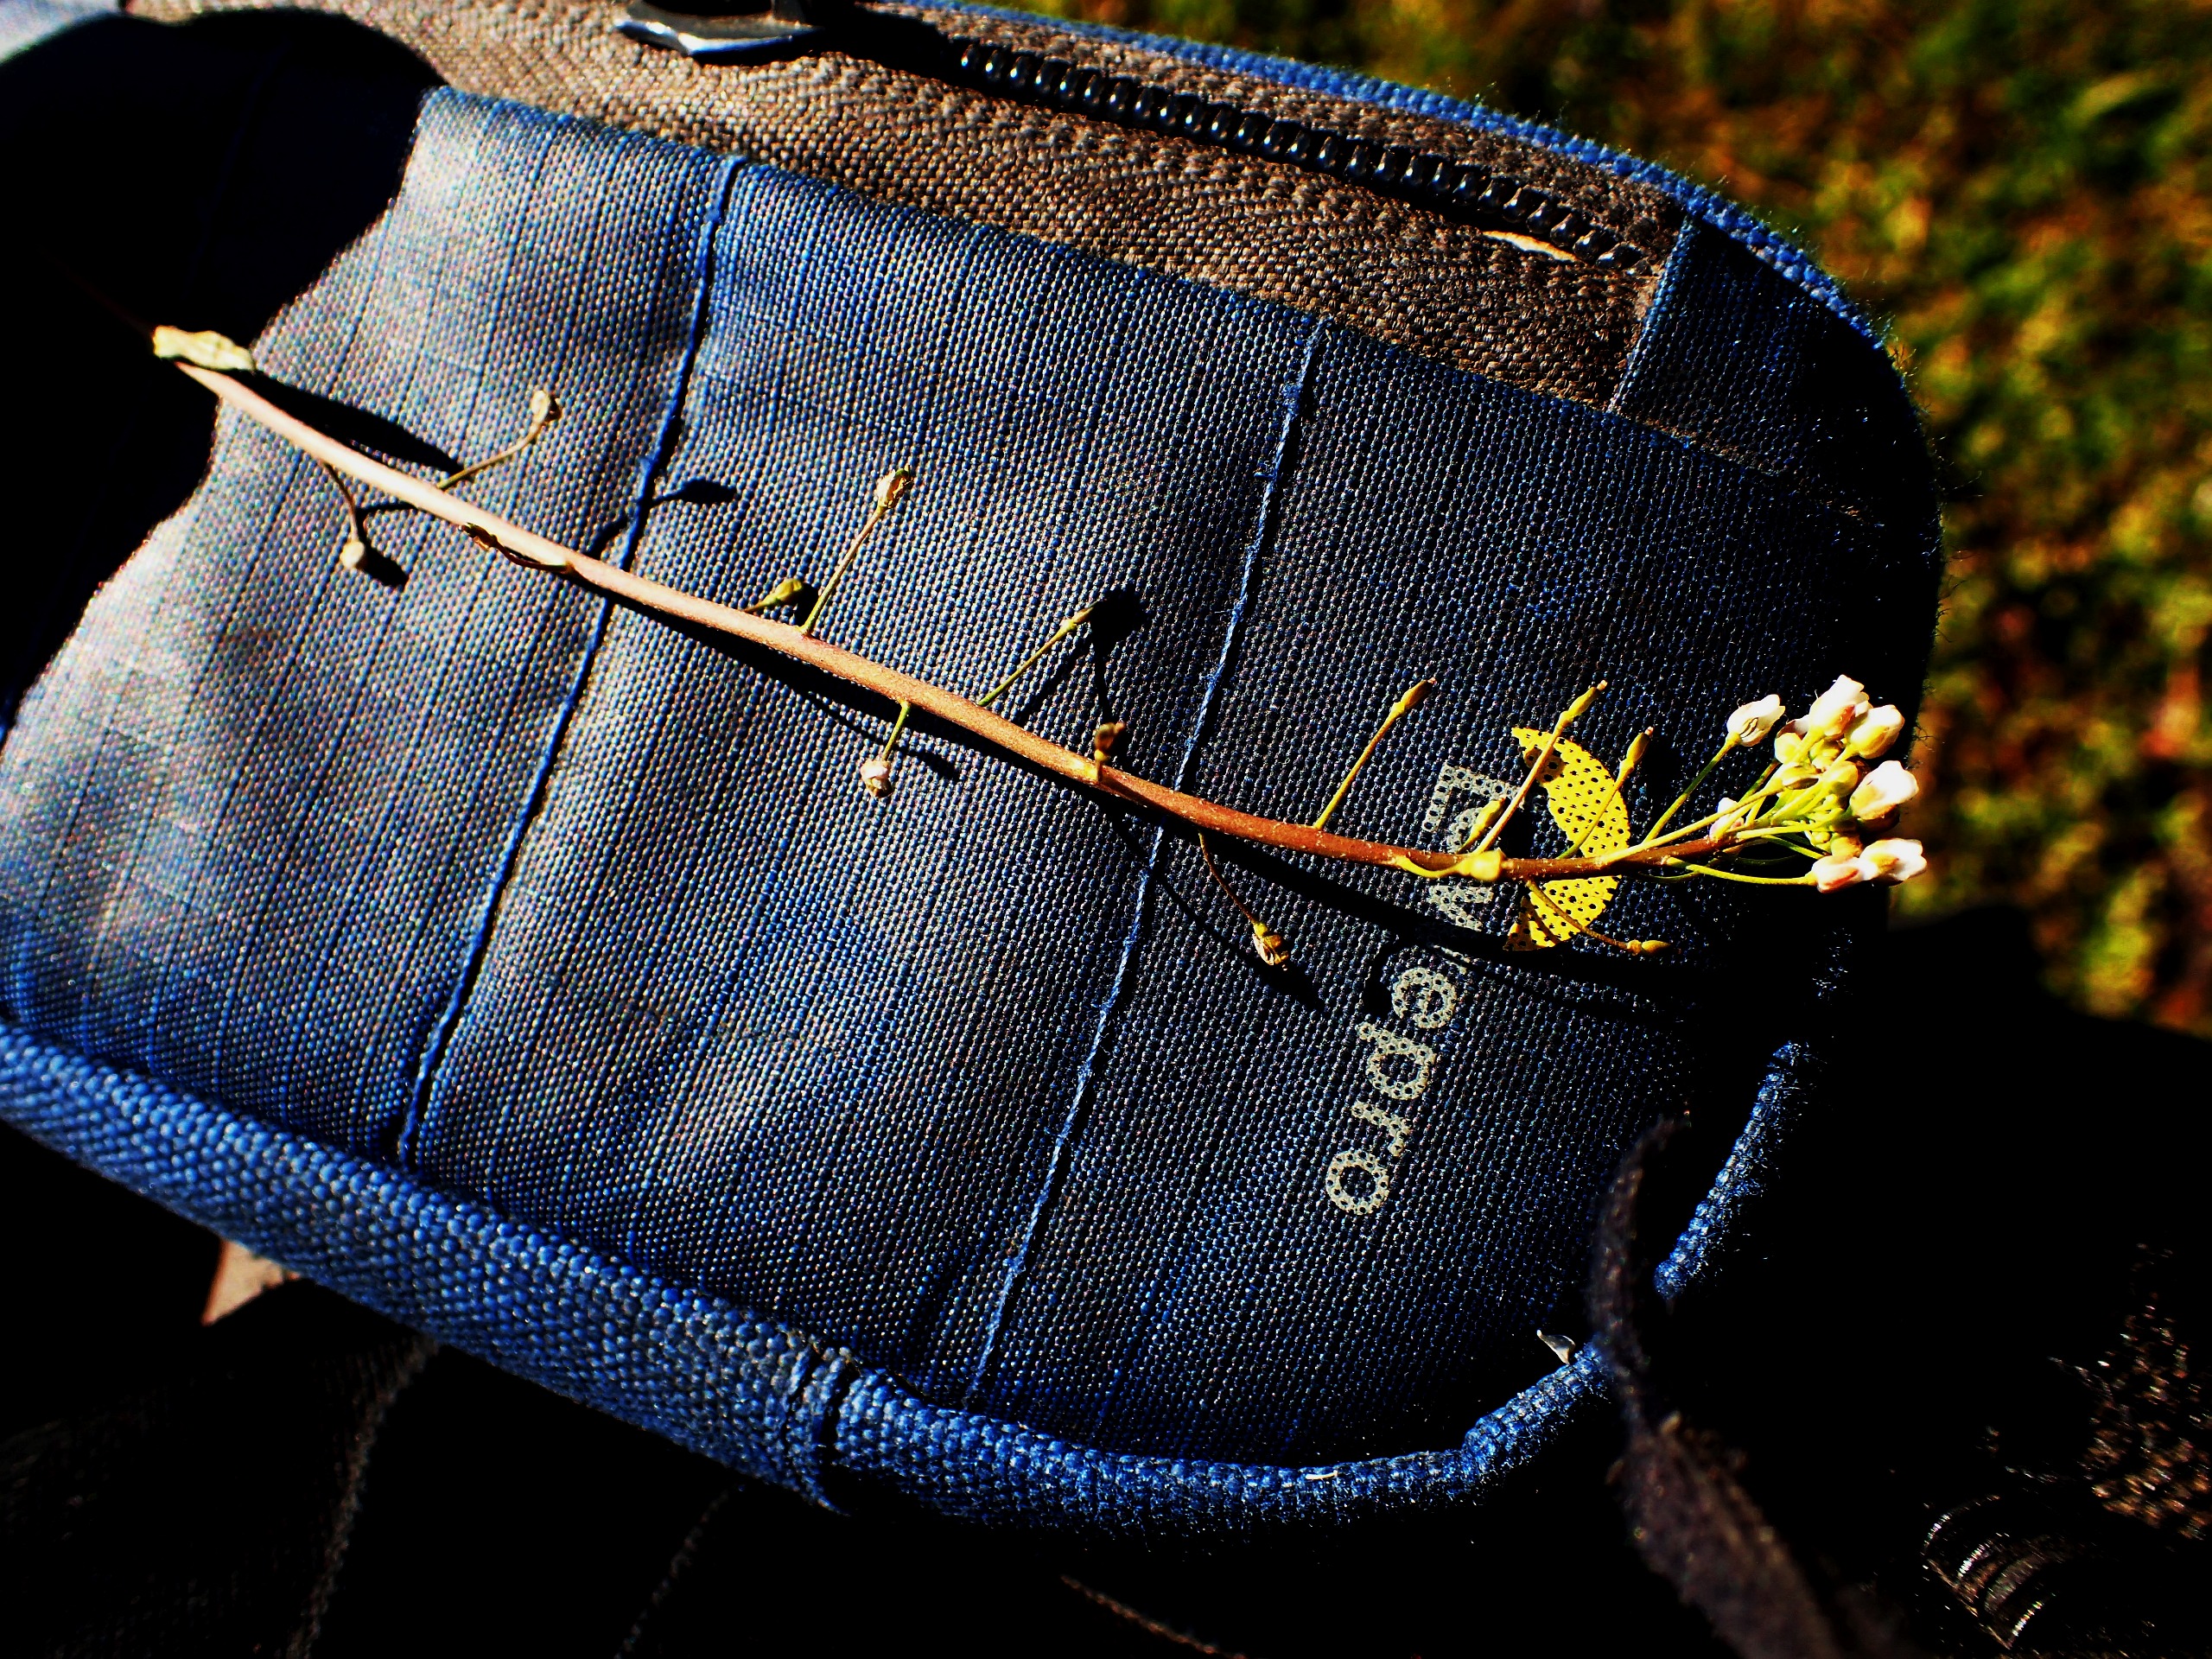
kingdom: Plantae
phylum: Tracheophyta
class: Magnoliopsida
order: Brassicales
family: Brassicaceae
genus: Capsella
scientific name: Capsella bursa-pastoris
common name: Hyrdetaske
